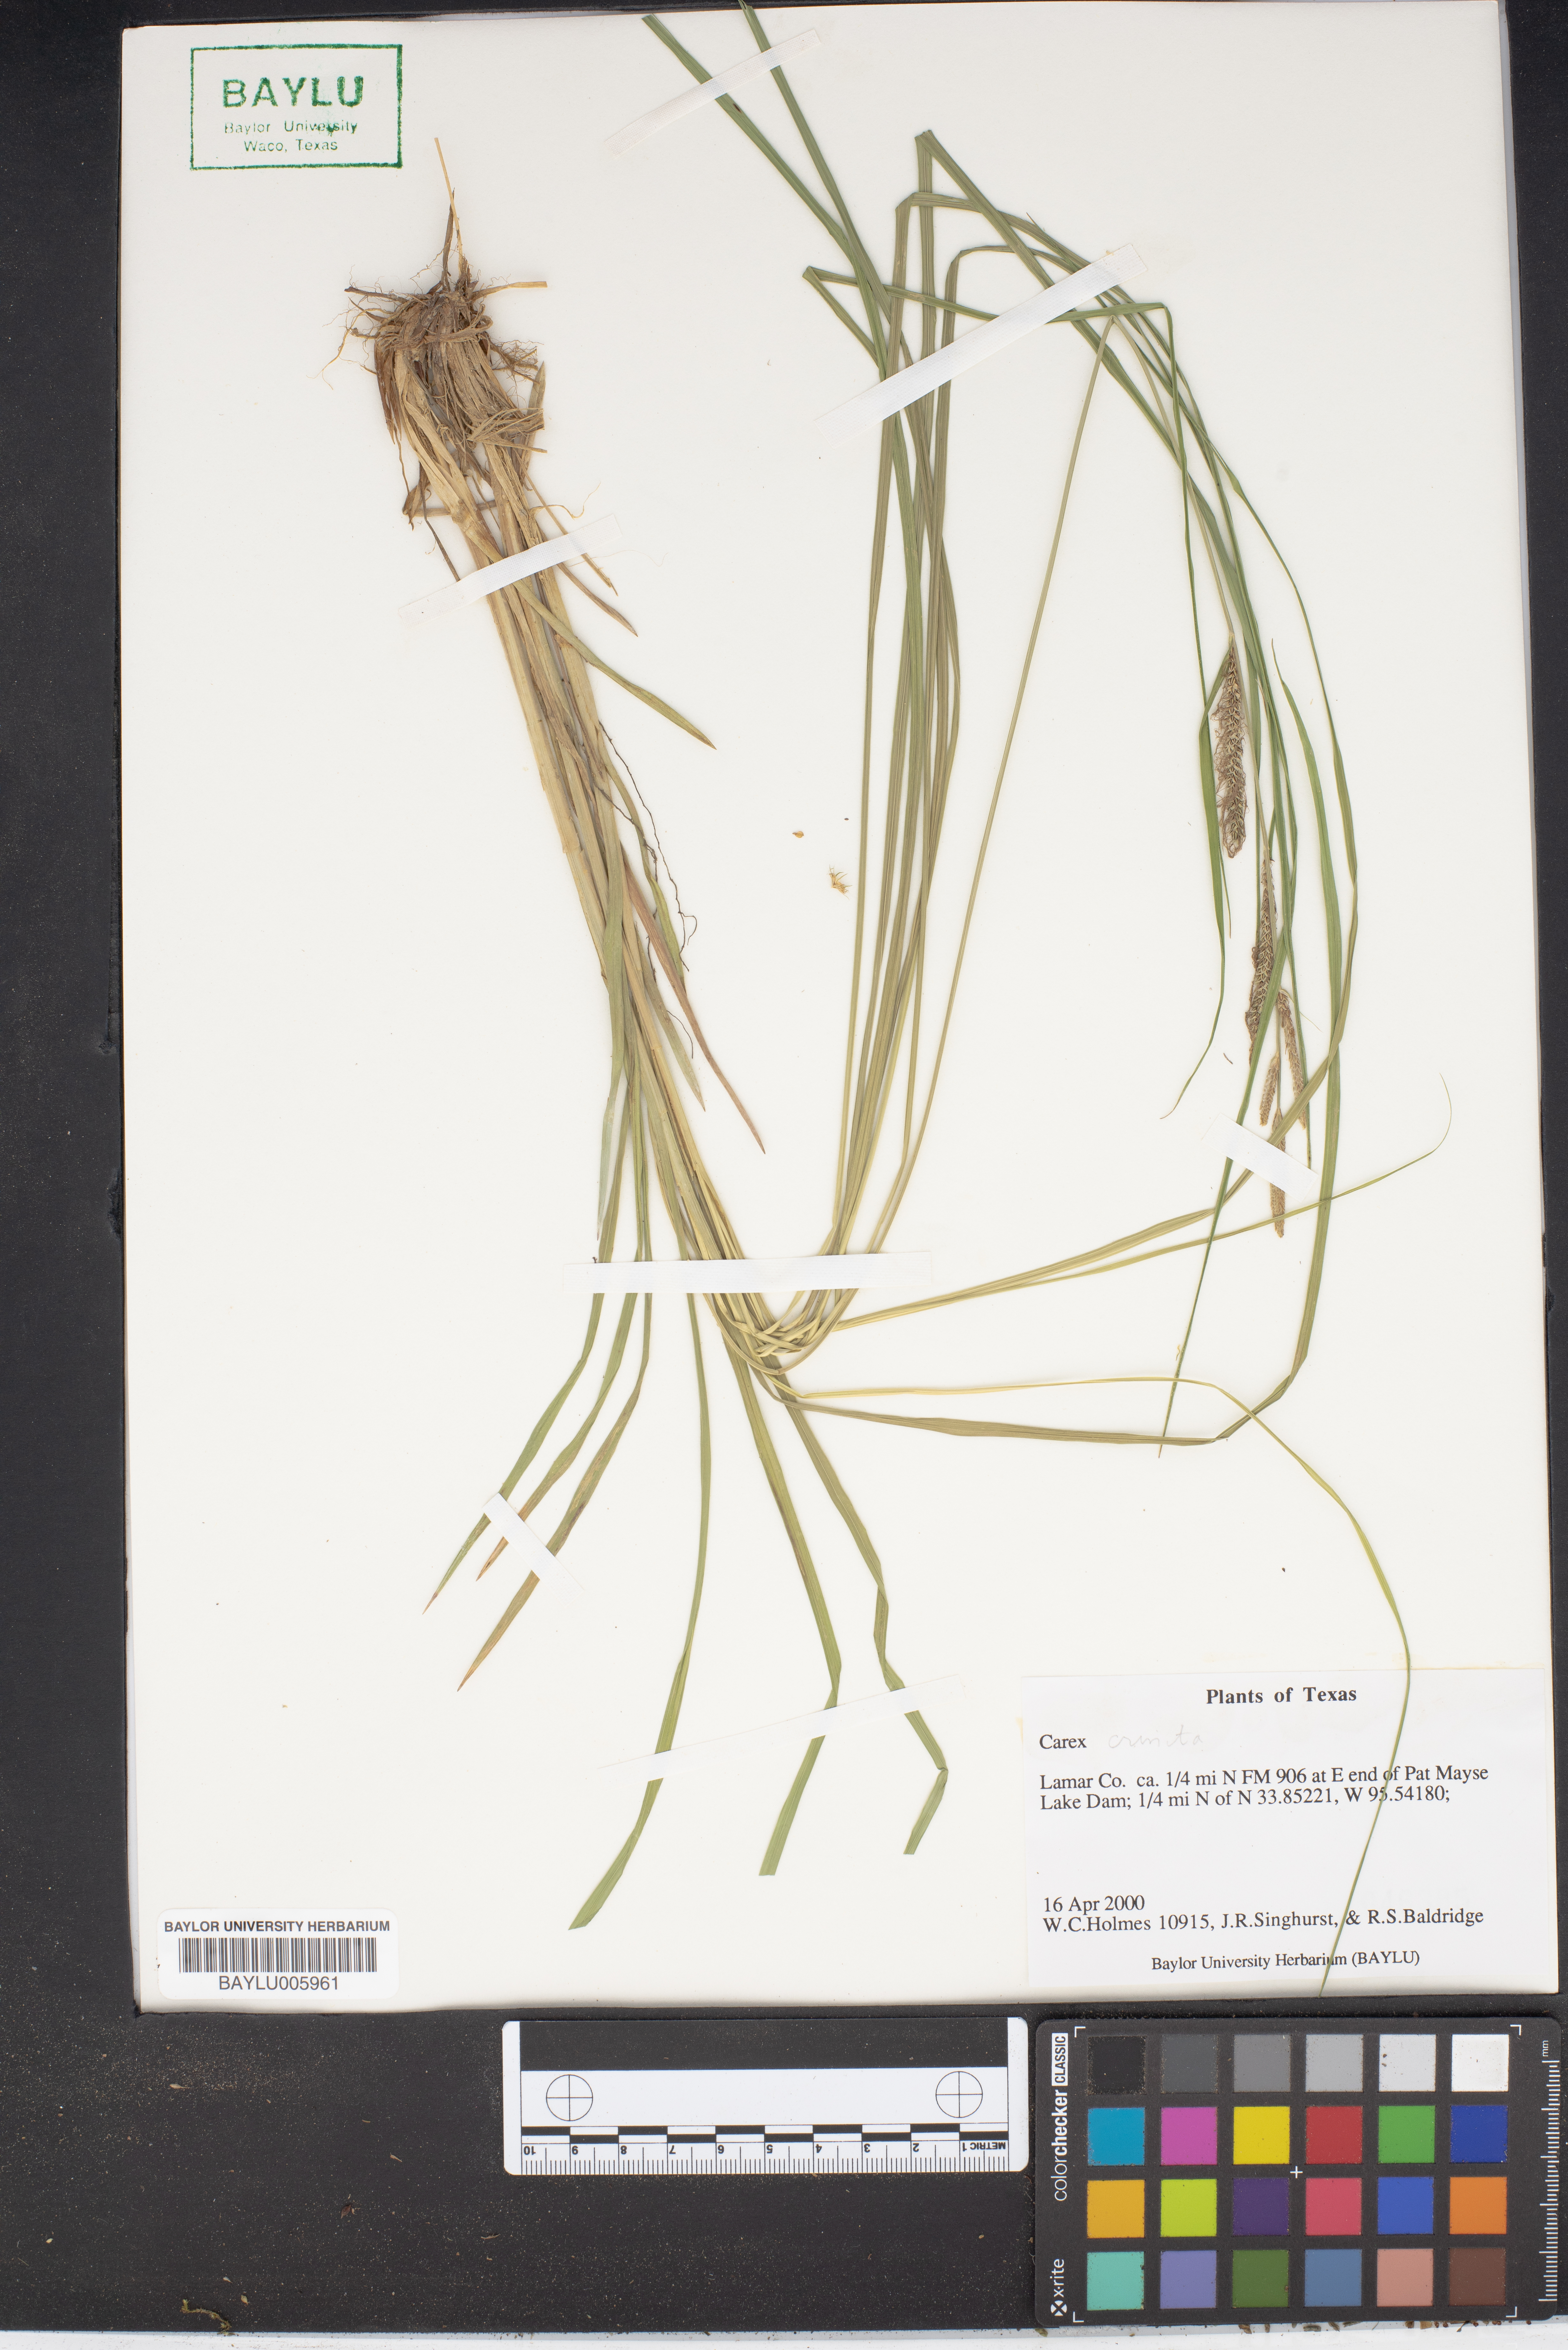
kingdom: Plantae
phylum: Tracheophyta
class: Liliopsida
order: Poales
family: Cyperaceae
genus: Carex
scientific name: Carex
